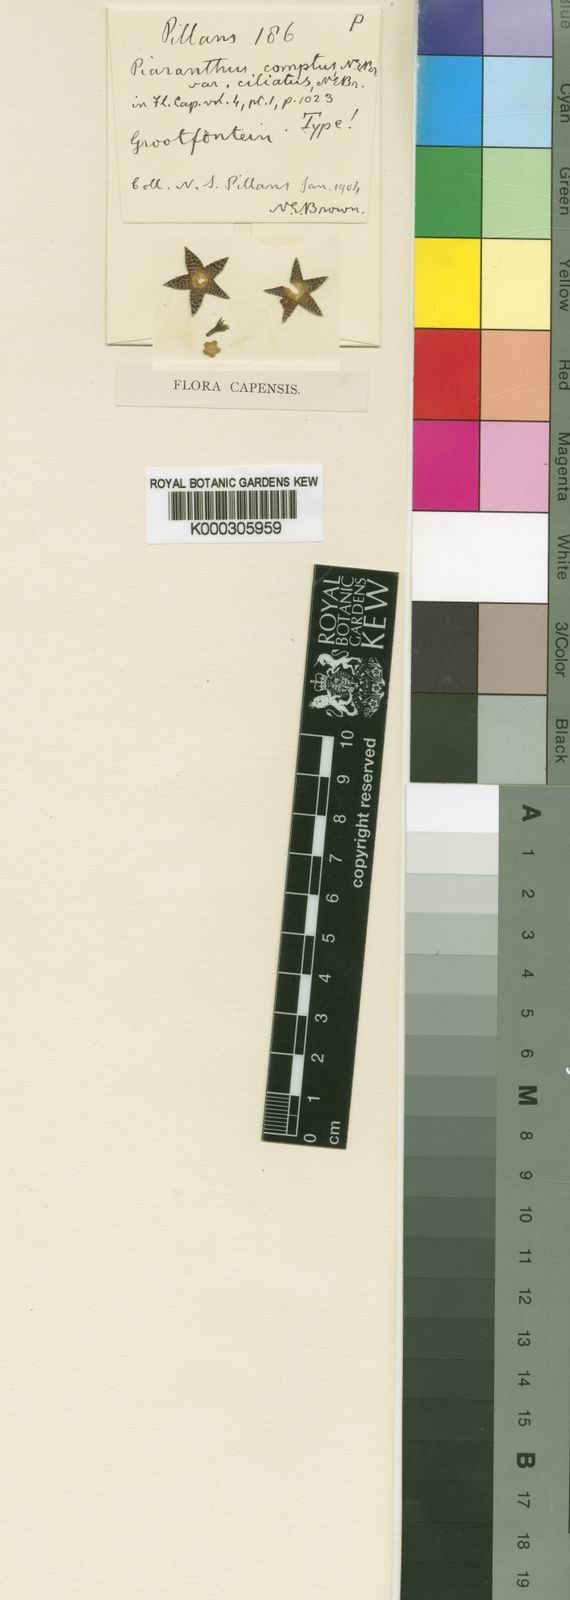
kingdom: Plantae
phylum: Tracheophyta
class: Magnoliopsida
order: Gentianales
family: Apocynaceae
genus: Ceropegia
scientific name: Ceropegia compta
